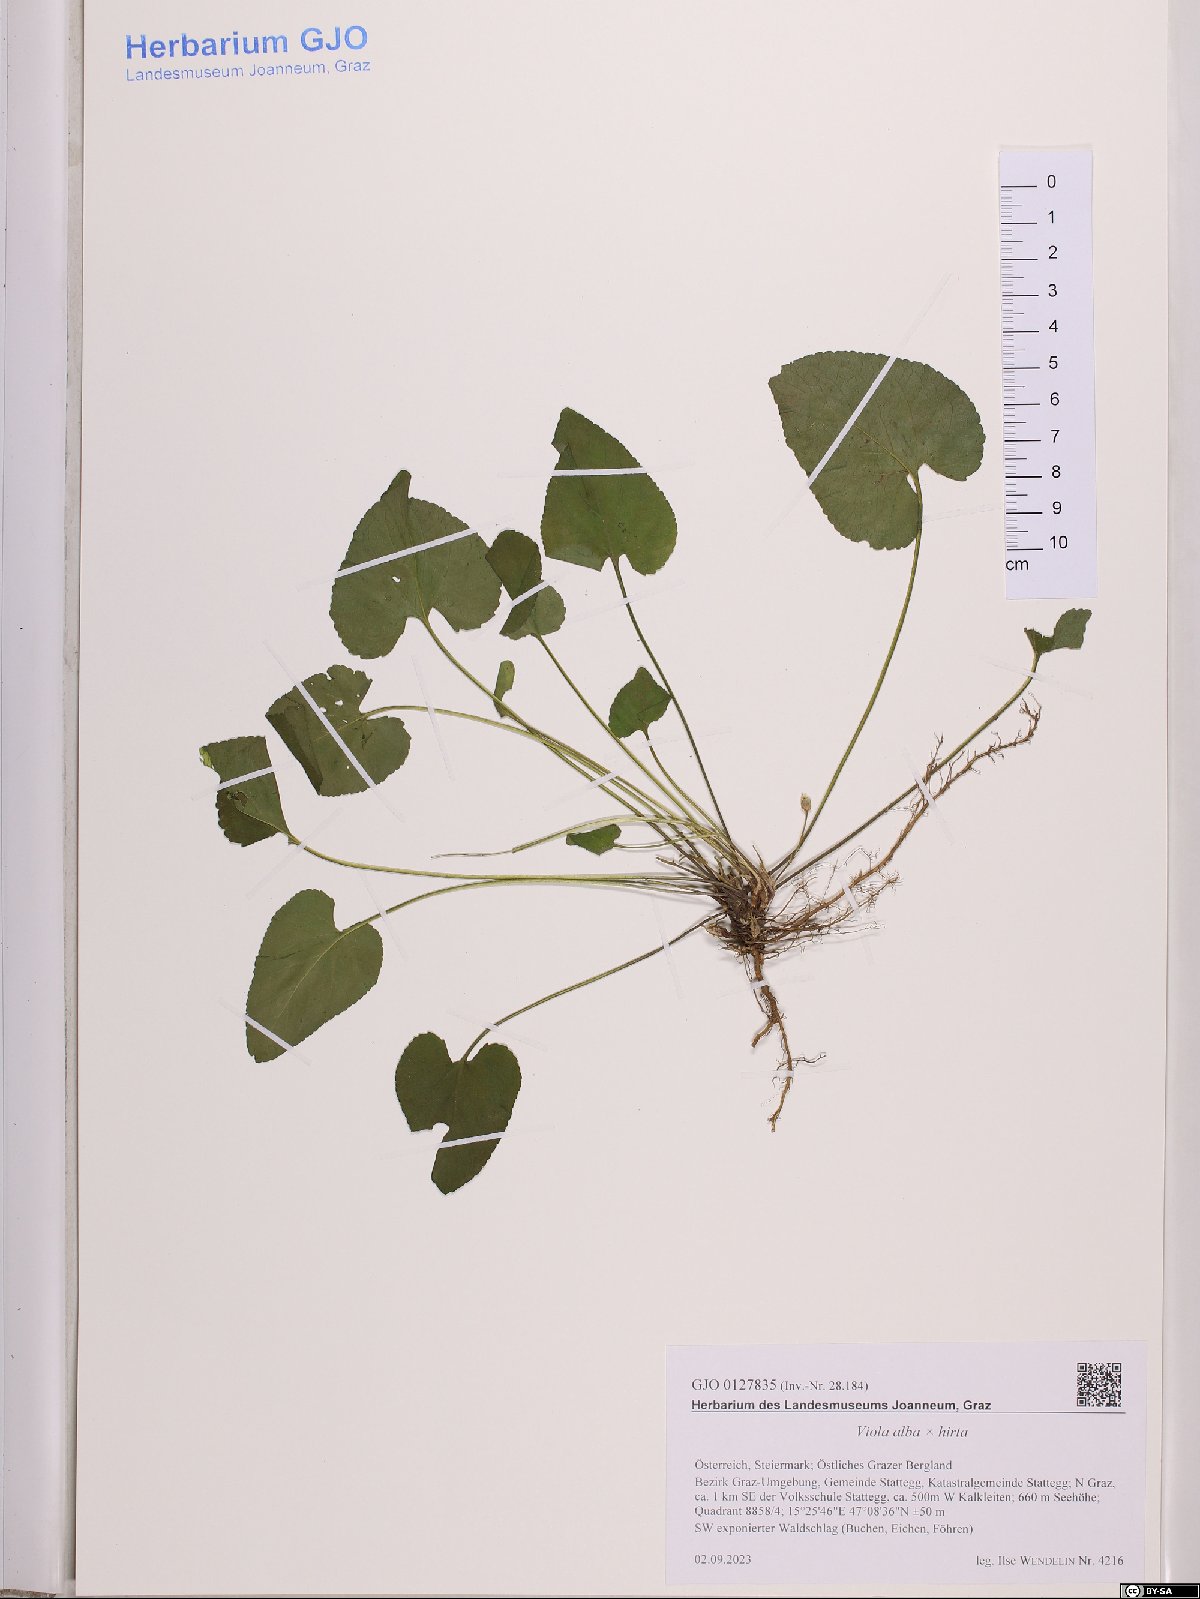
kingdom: Plantae
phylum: Tracheophyta
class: Magnoliopsida
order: Malpighiales
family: Violaceae
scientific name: Violaceae
